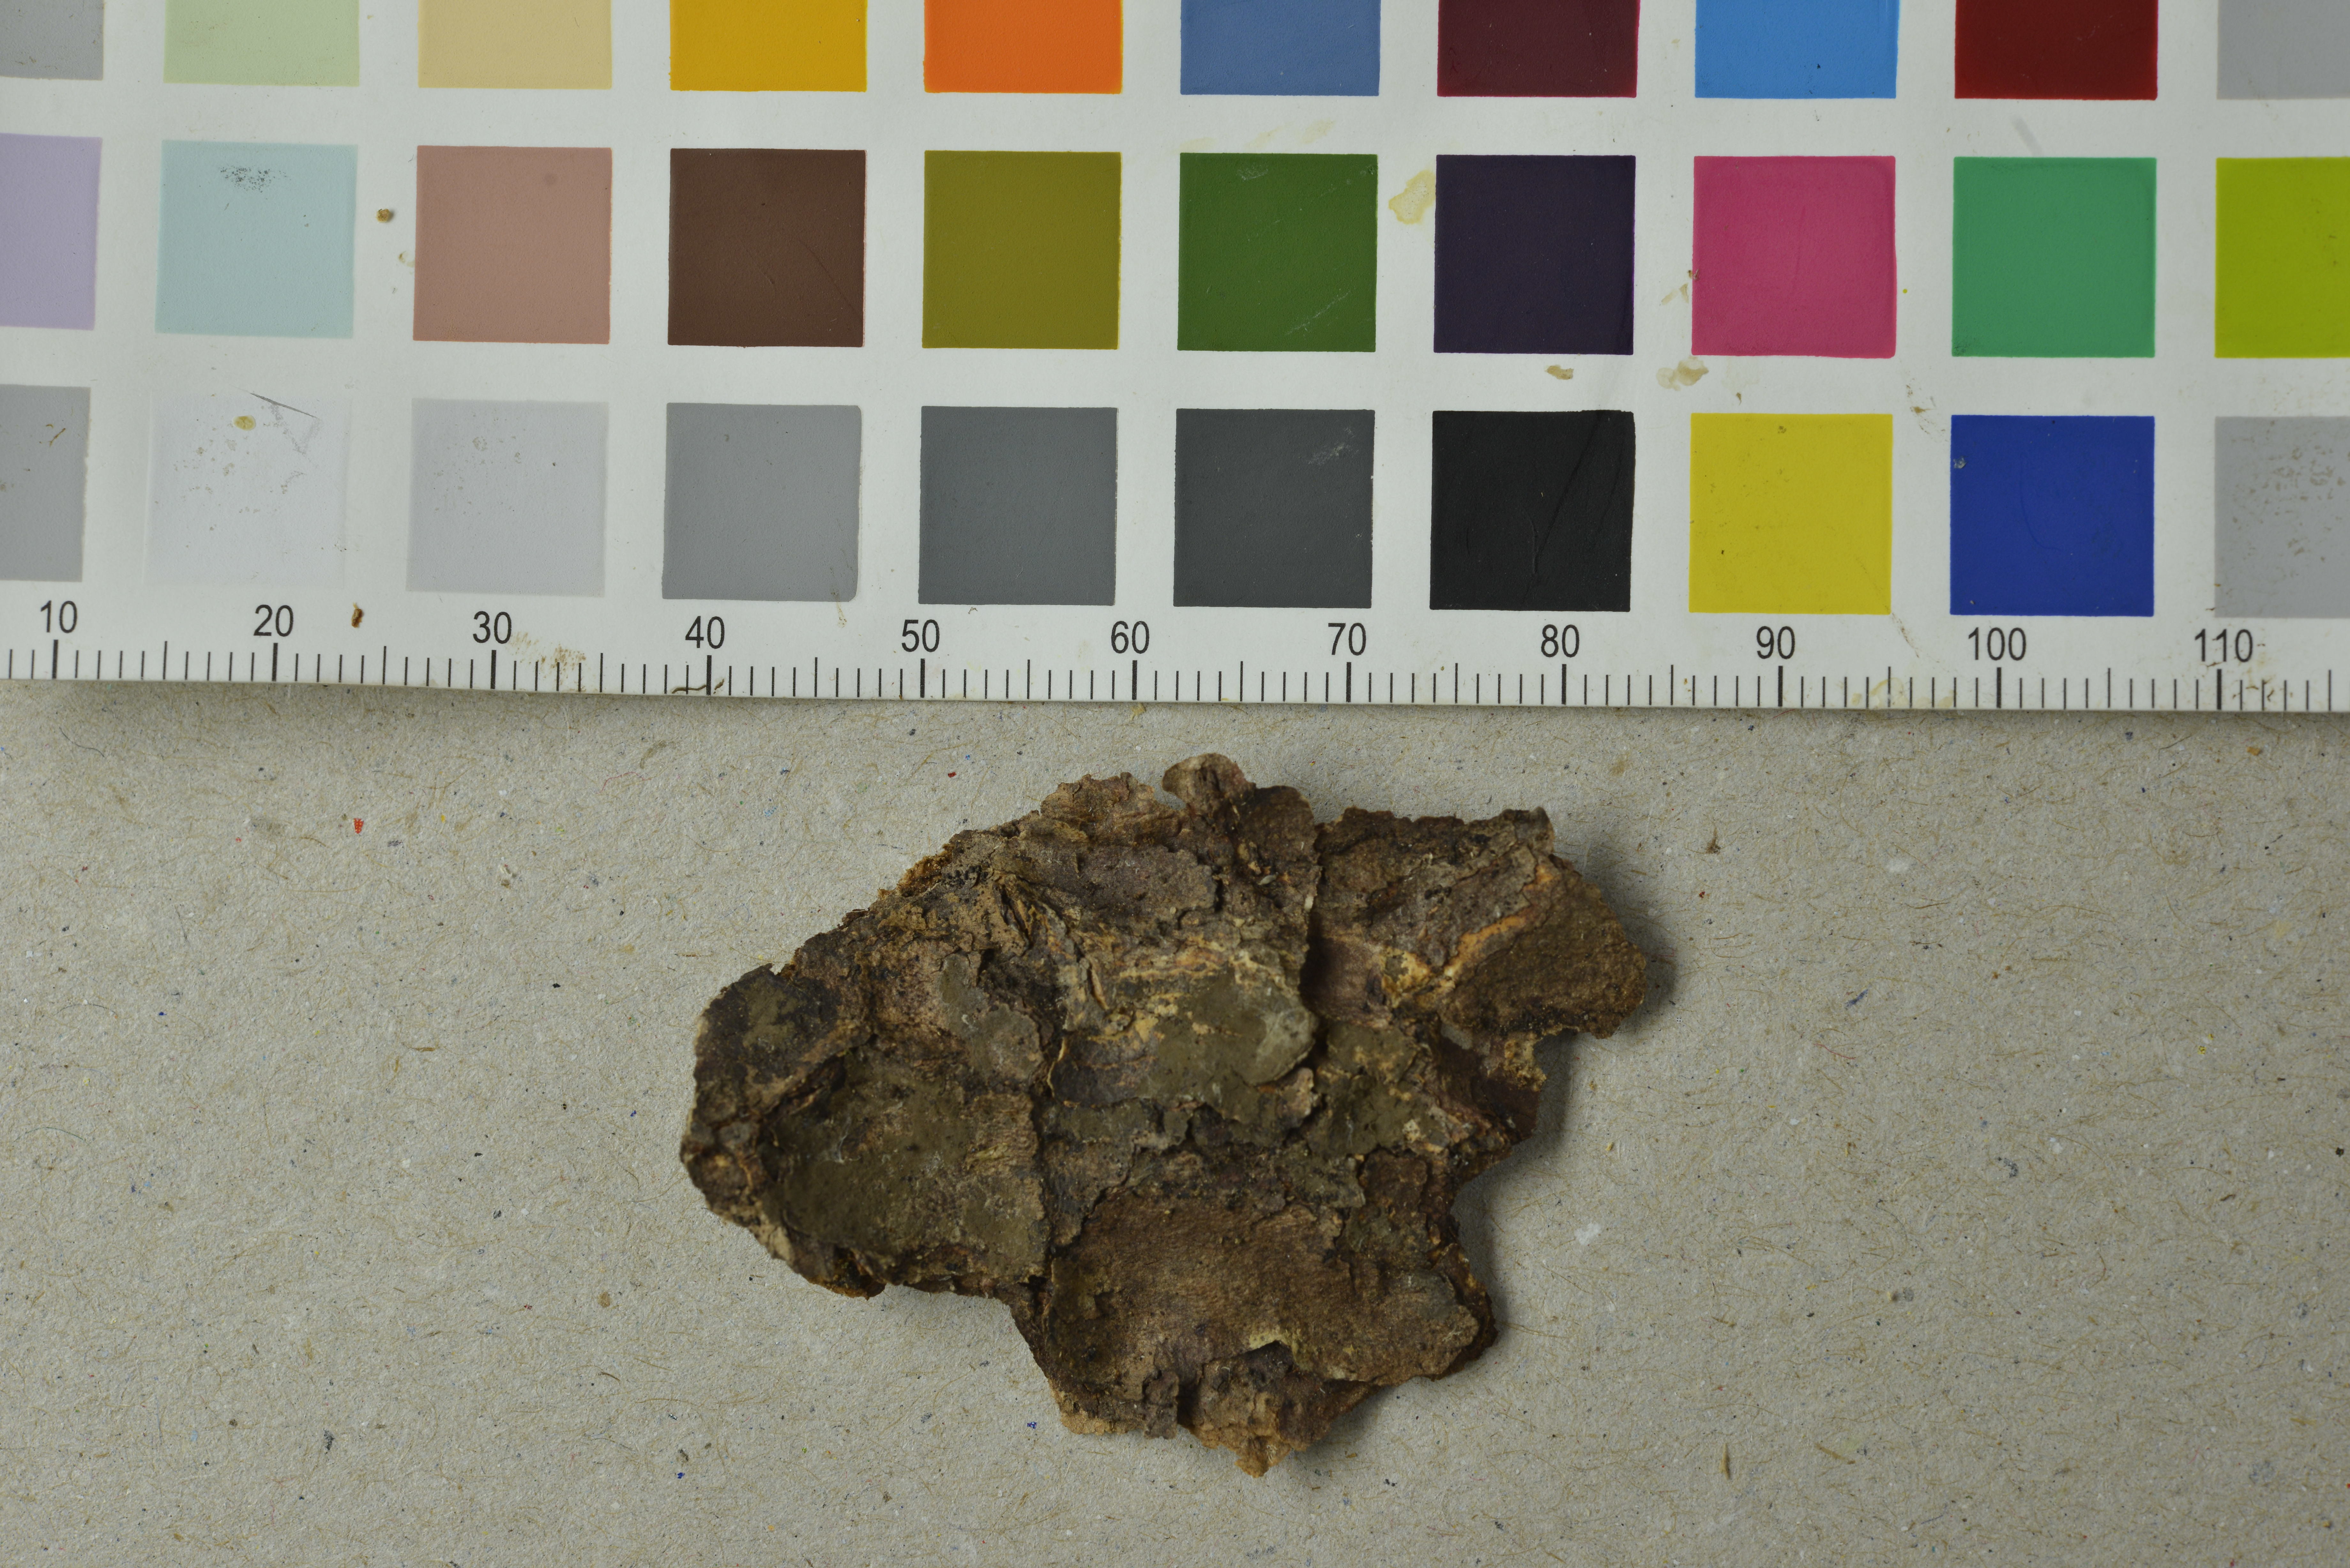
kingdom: Fungi
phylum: Basidiomycota
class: Agaricomycetes
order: Trechisporales
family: Hydnodontaceae
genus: Luellia
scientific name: Luellia recondita
